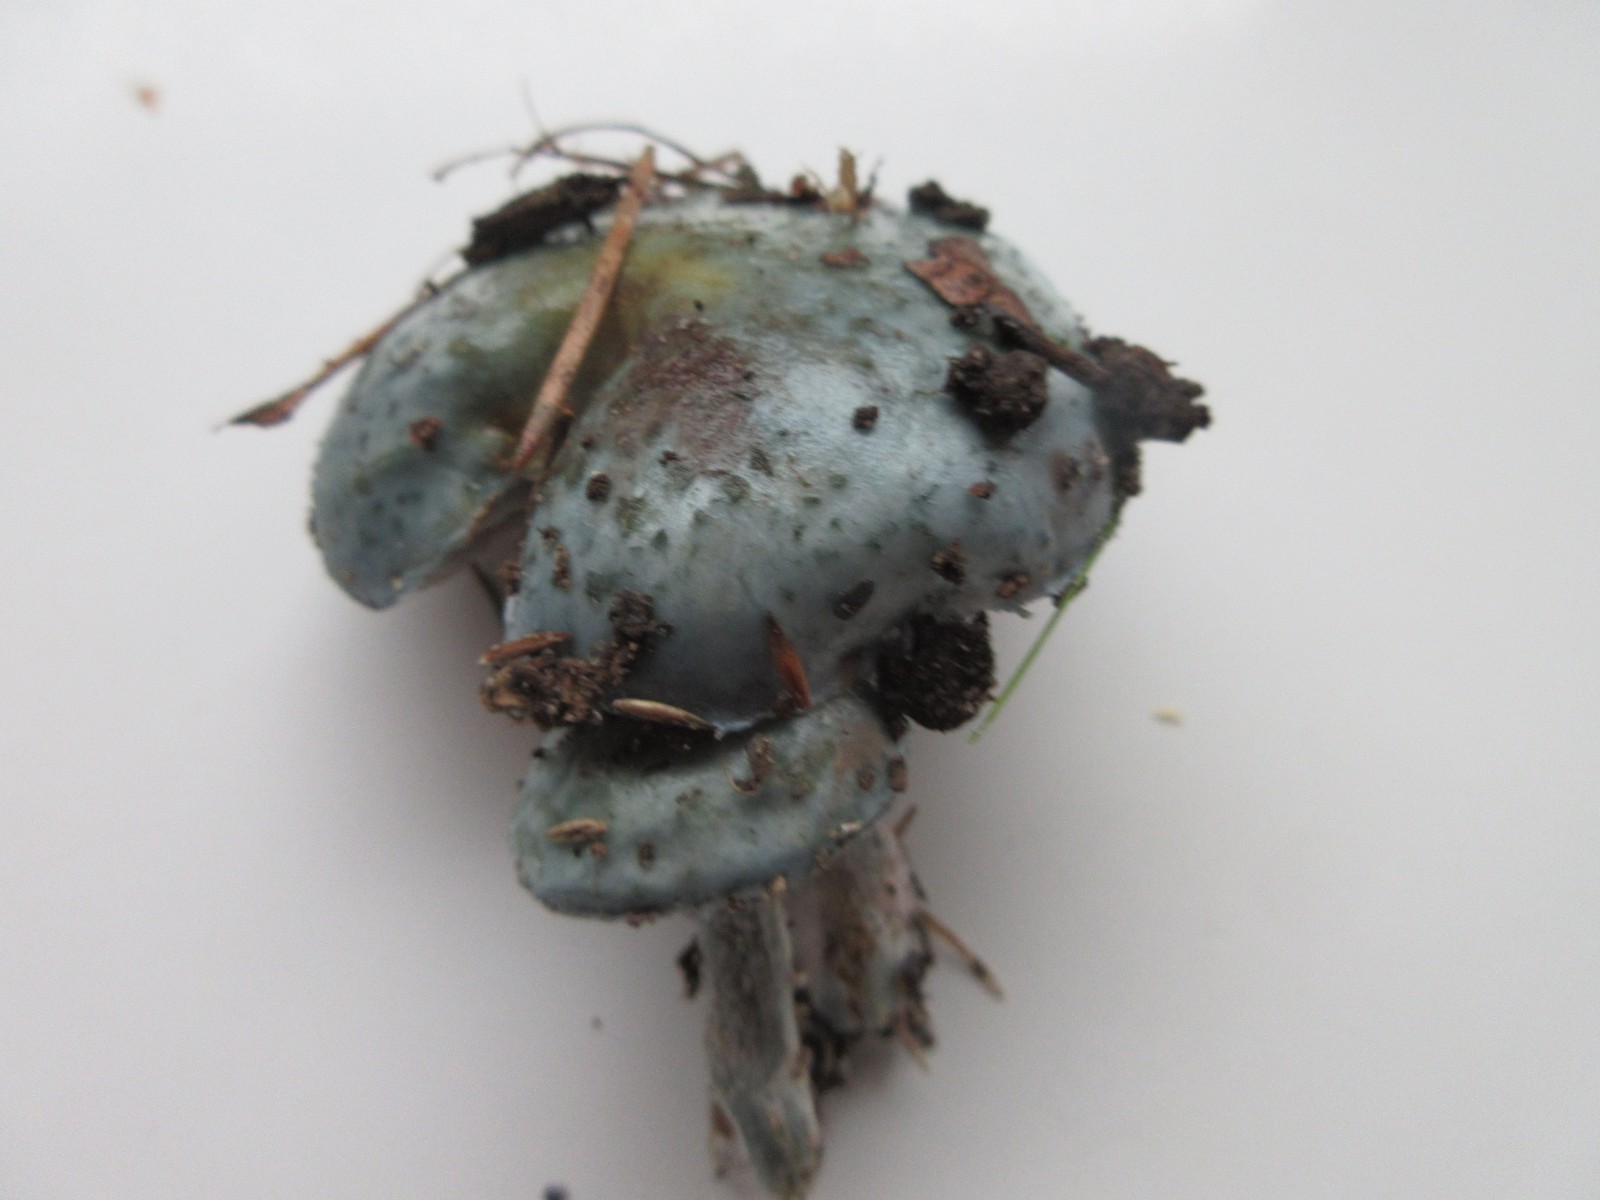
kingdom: Fungi
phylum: Basidiomycota
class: Agaricomycetes
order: Agaricales
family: Strophariaceae
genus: Stropharia
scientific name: Stropharia cyanea
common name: blågrøn bredblad
